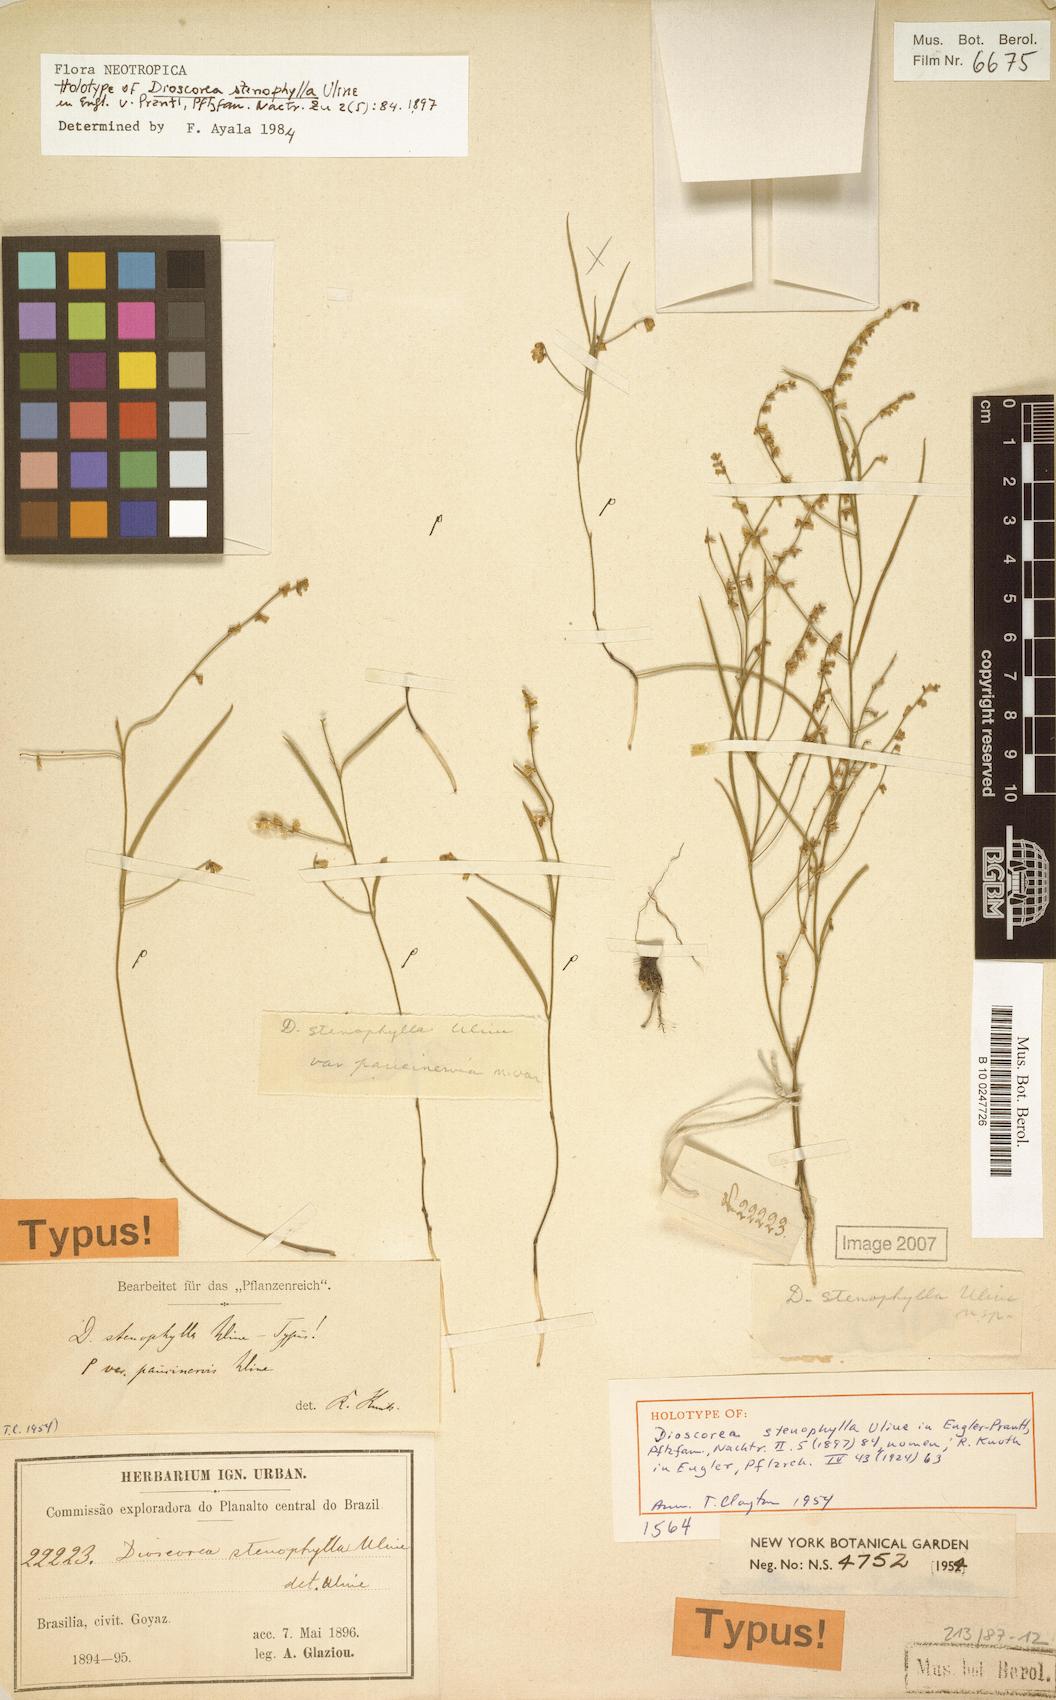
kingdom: Plantae
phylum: Tracheophyta
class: Liliopsida
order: Dioscoreales
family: Dioscoreaceae
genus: Dioscorea
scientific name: Dioscorea stenophylla
